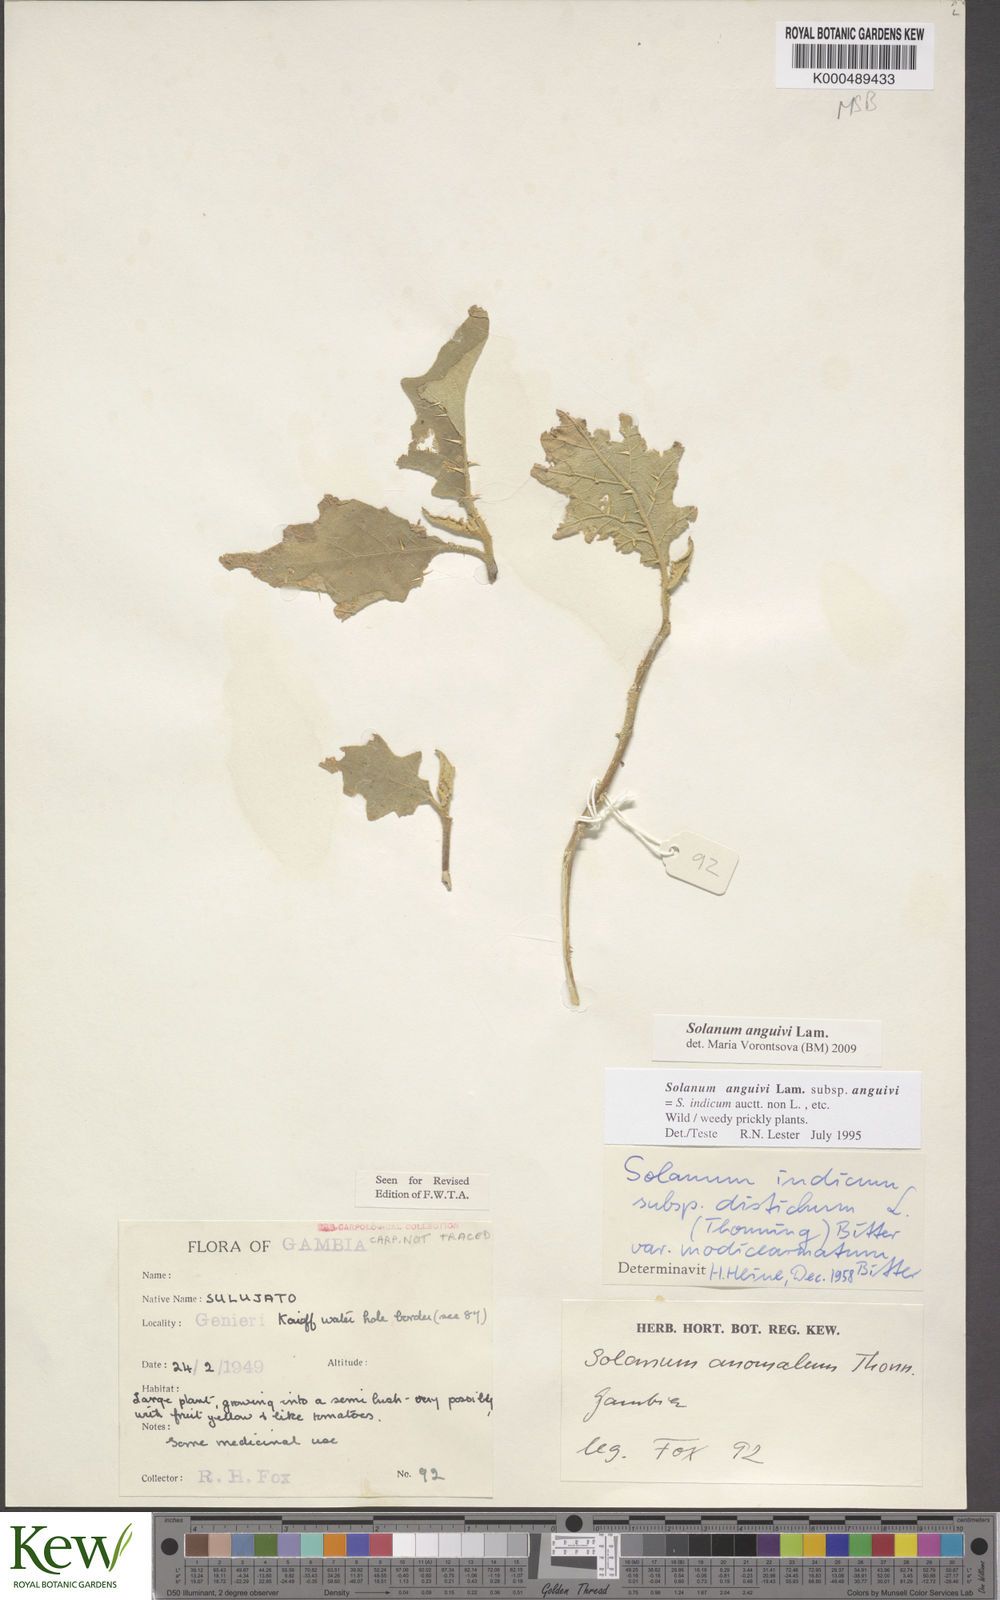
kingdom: Plantae
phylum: Tracheophyta
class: Magnoliopsida
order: Solanales
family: Solanaceae
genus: Solanum
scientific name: Solanum anguivi
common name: Forest bitterberry
